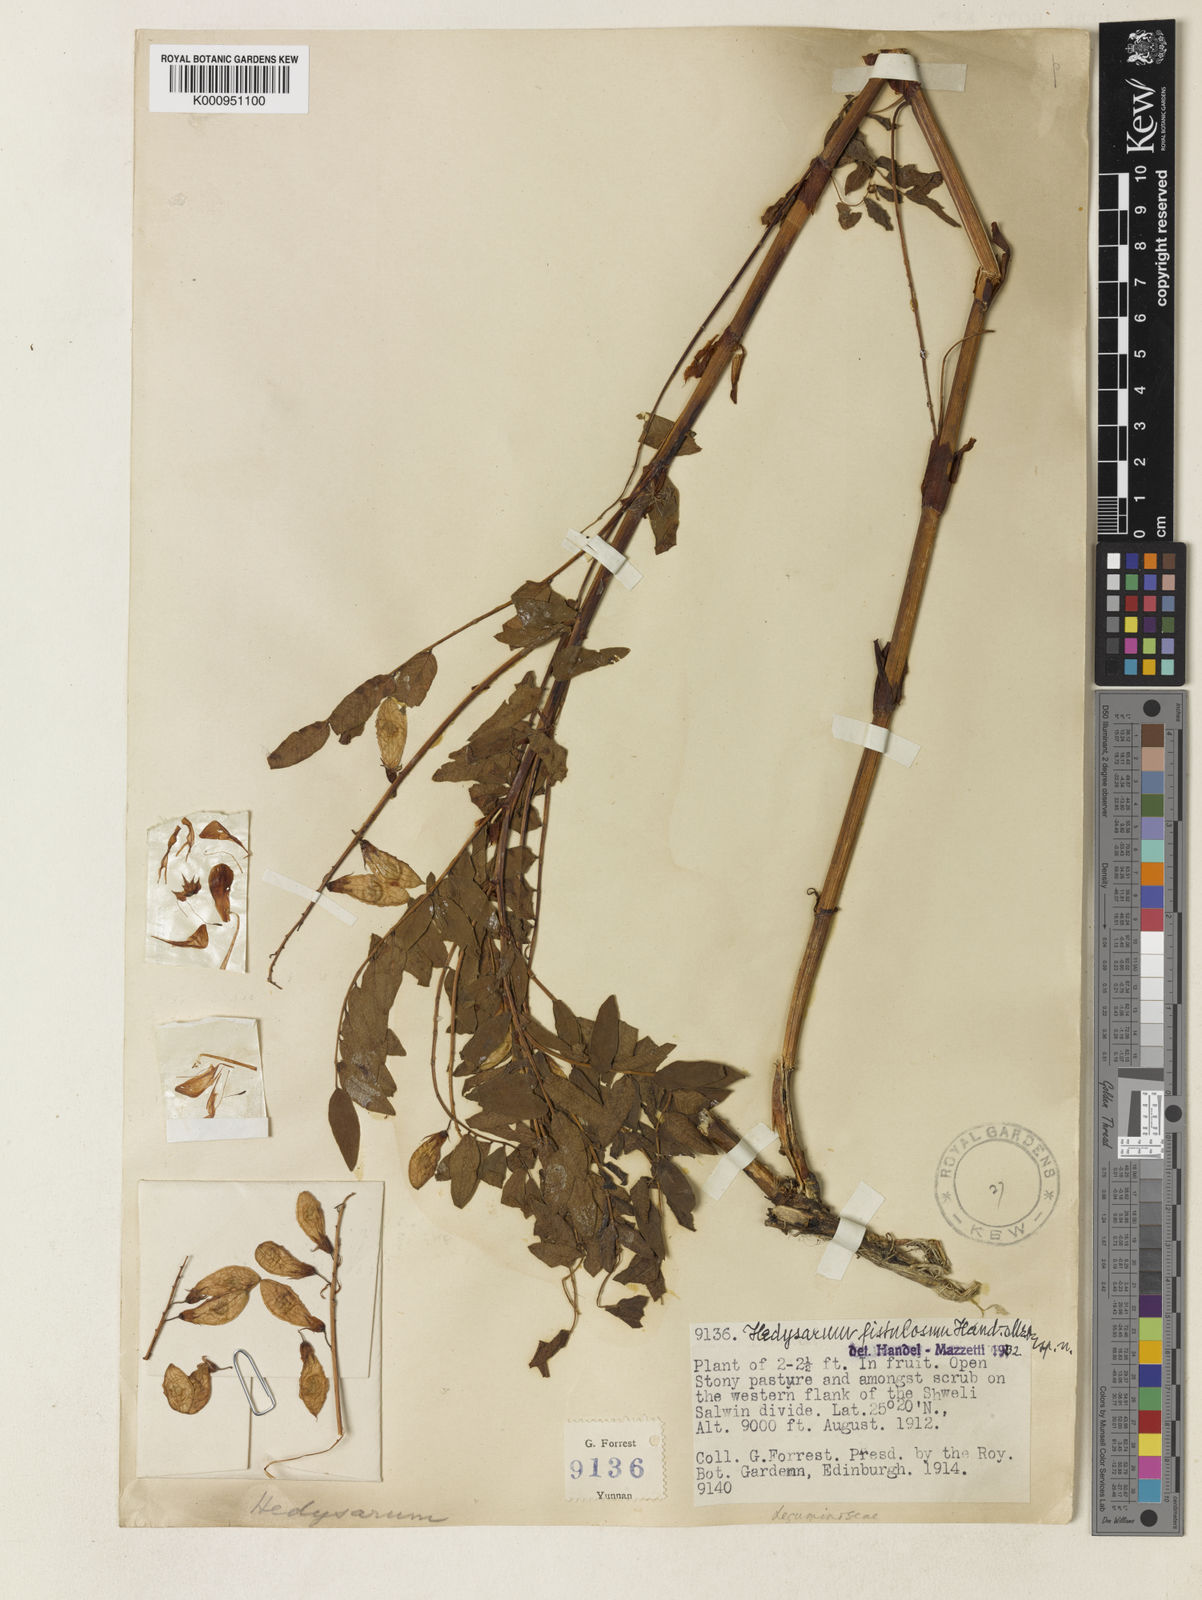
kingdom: Plantae
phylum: Tracheophyta
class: Magnoliopsida
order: Fabales
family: Fabaceae
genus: Hedysarum
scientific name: Hedysarum fistulosum
